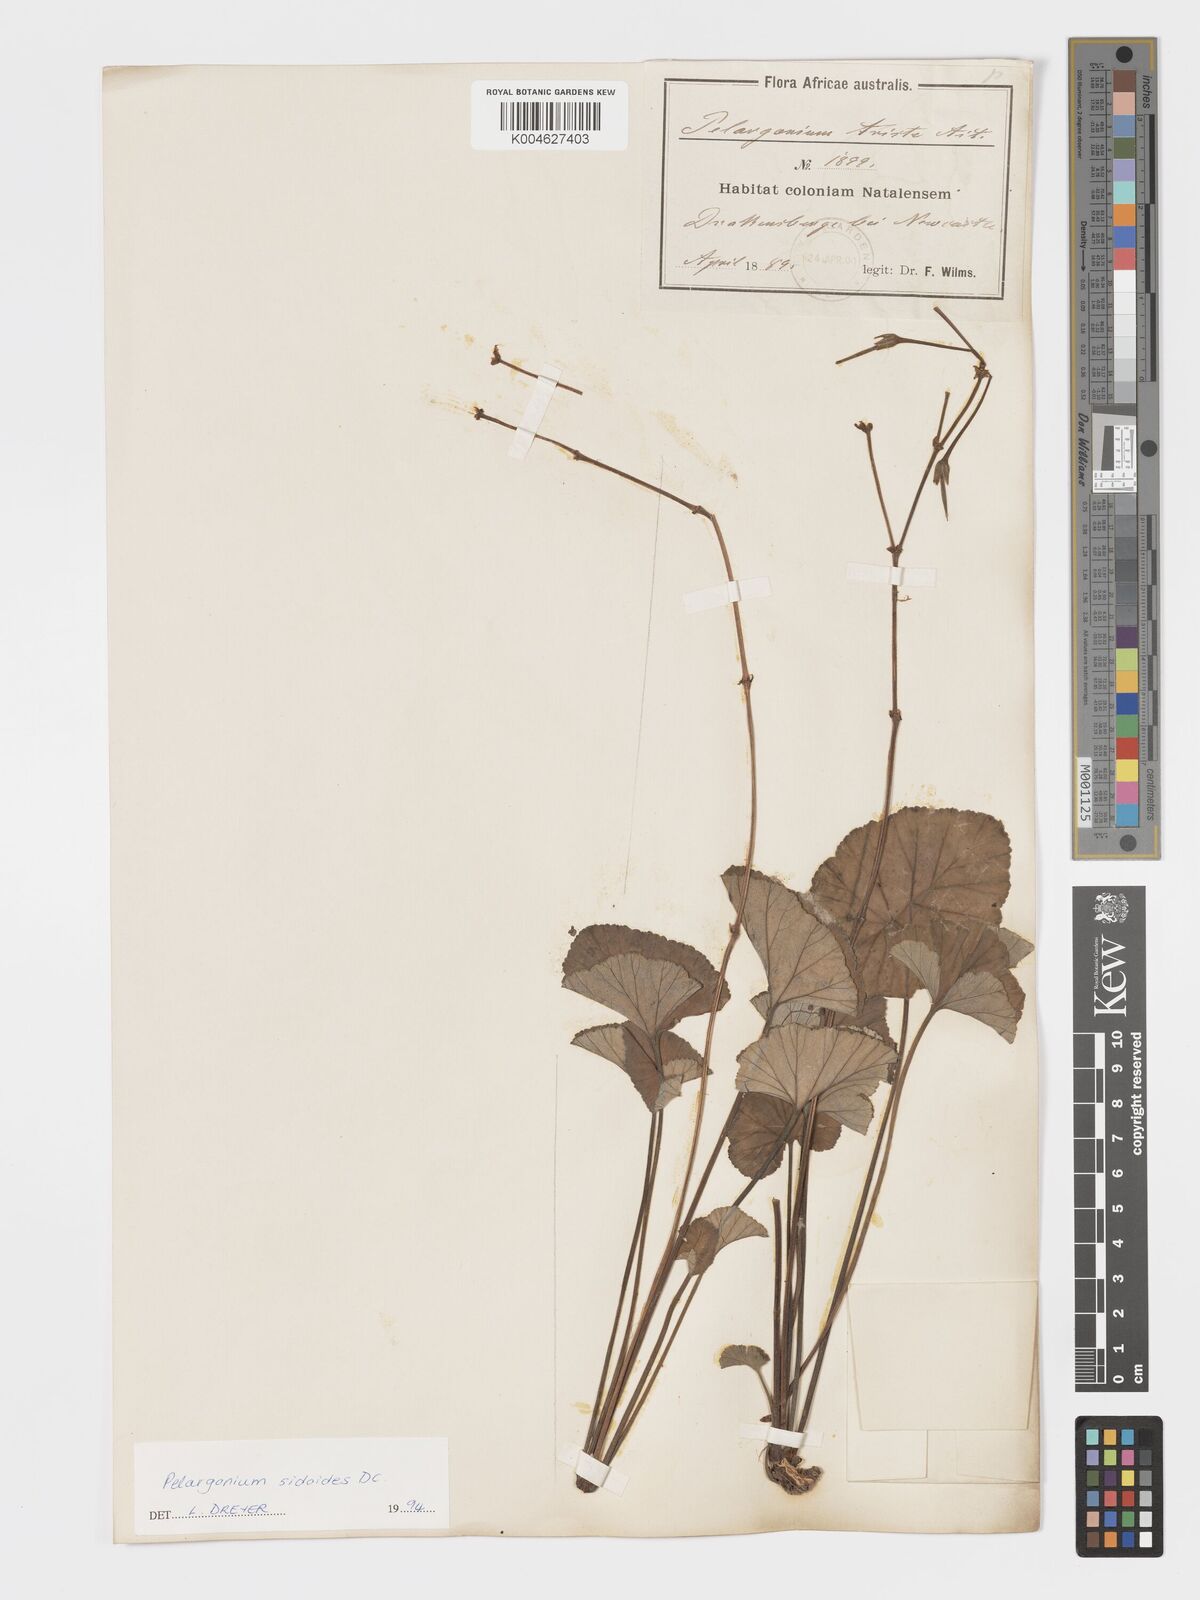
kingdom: Plantae
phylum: Tracheophyta
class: Magnoliopsida
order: Geraniales
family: Geraniaceae
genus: Pelargonium
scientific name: Pelargonium sidoides
